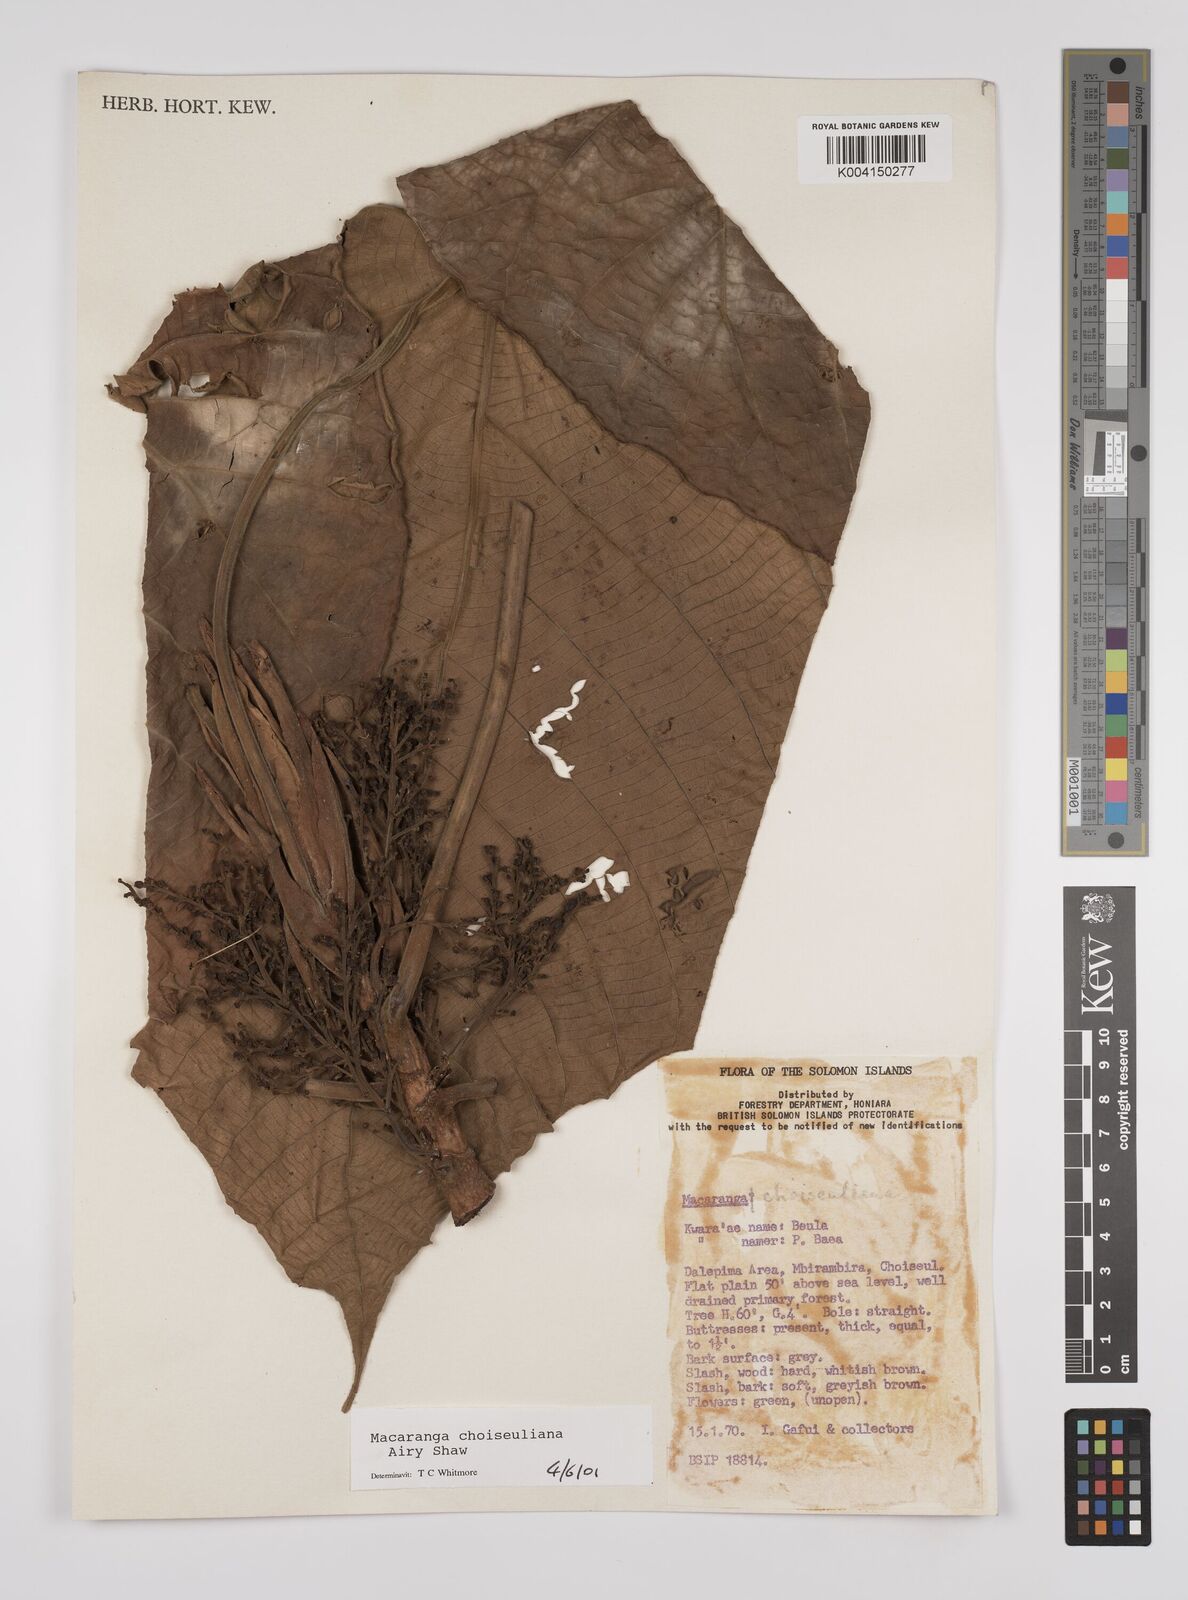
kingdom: Plantae
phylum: Tracheophyta
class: Magnoliopsida
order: Malpighiales
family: Euphorbiaceae
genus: Macaranga
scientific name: Macaranga choiseuliana
